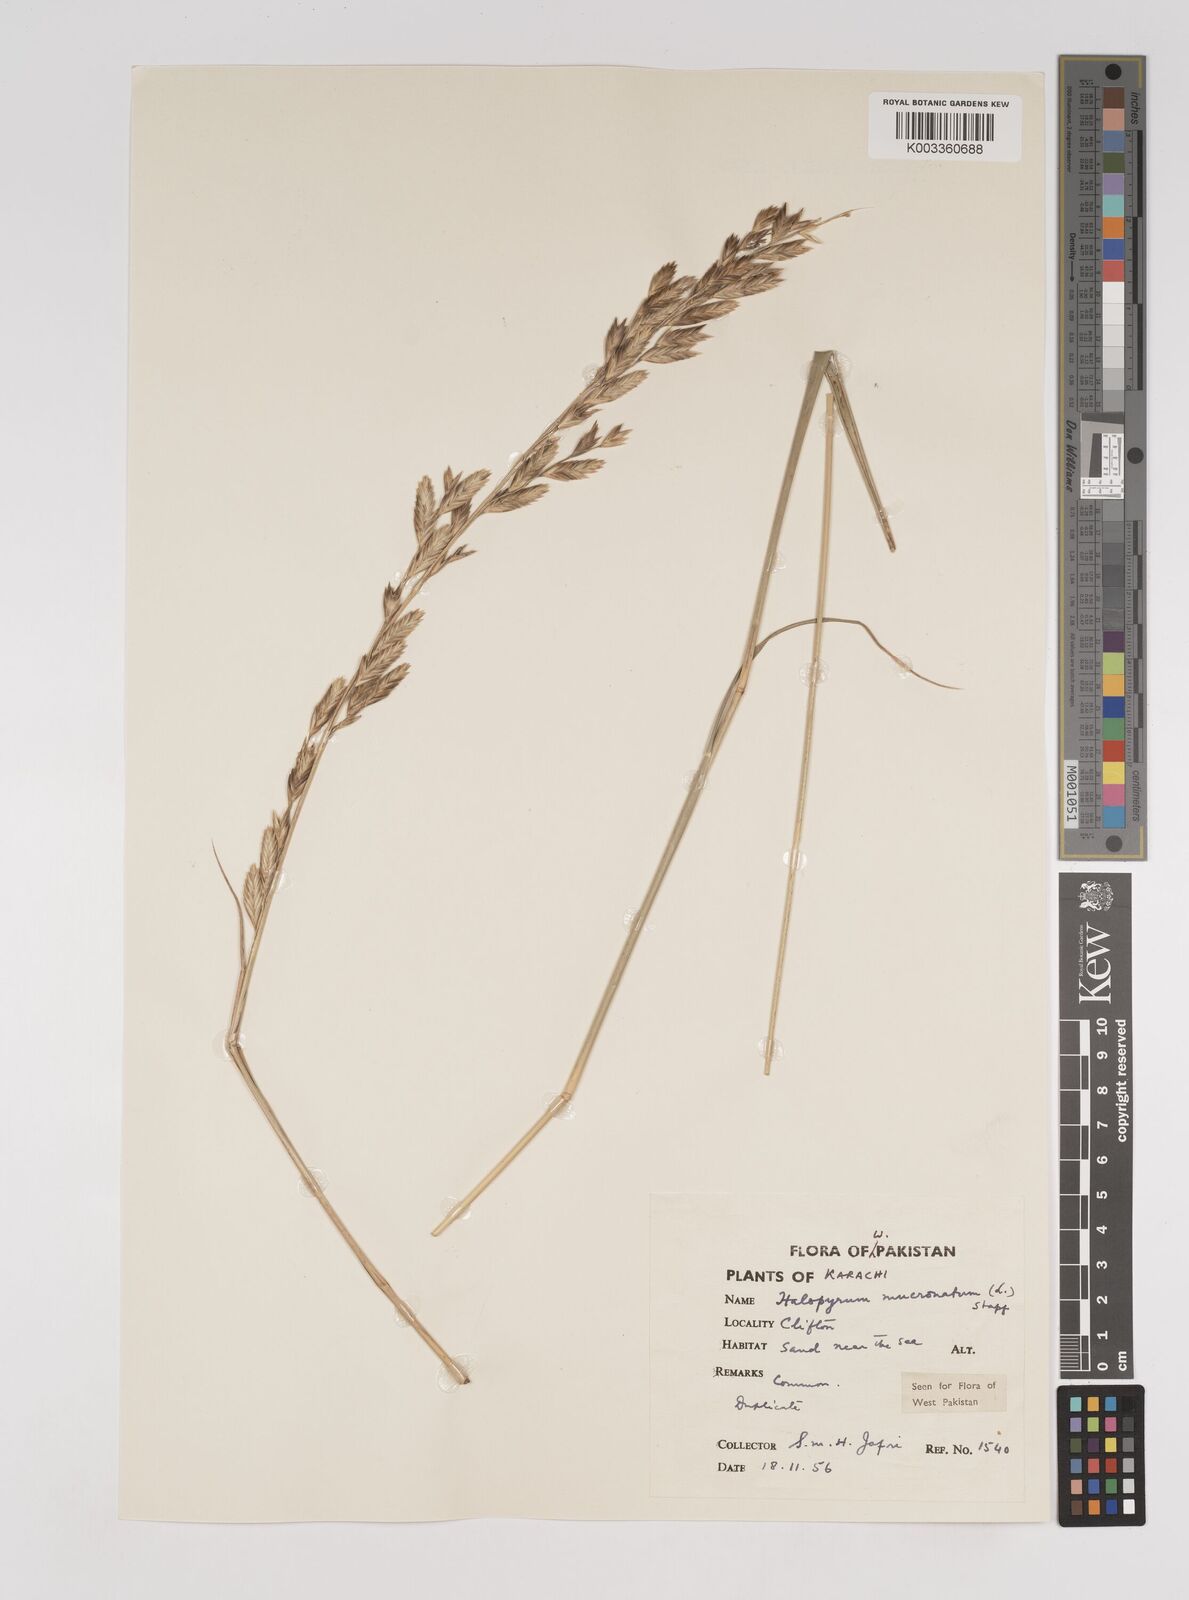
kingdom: Plantae
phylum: Tracheophyta
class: Liliopsida
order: Poales
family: Poaceae
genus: Halopyrum
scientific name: Halopyrum mucronatum
